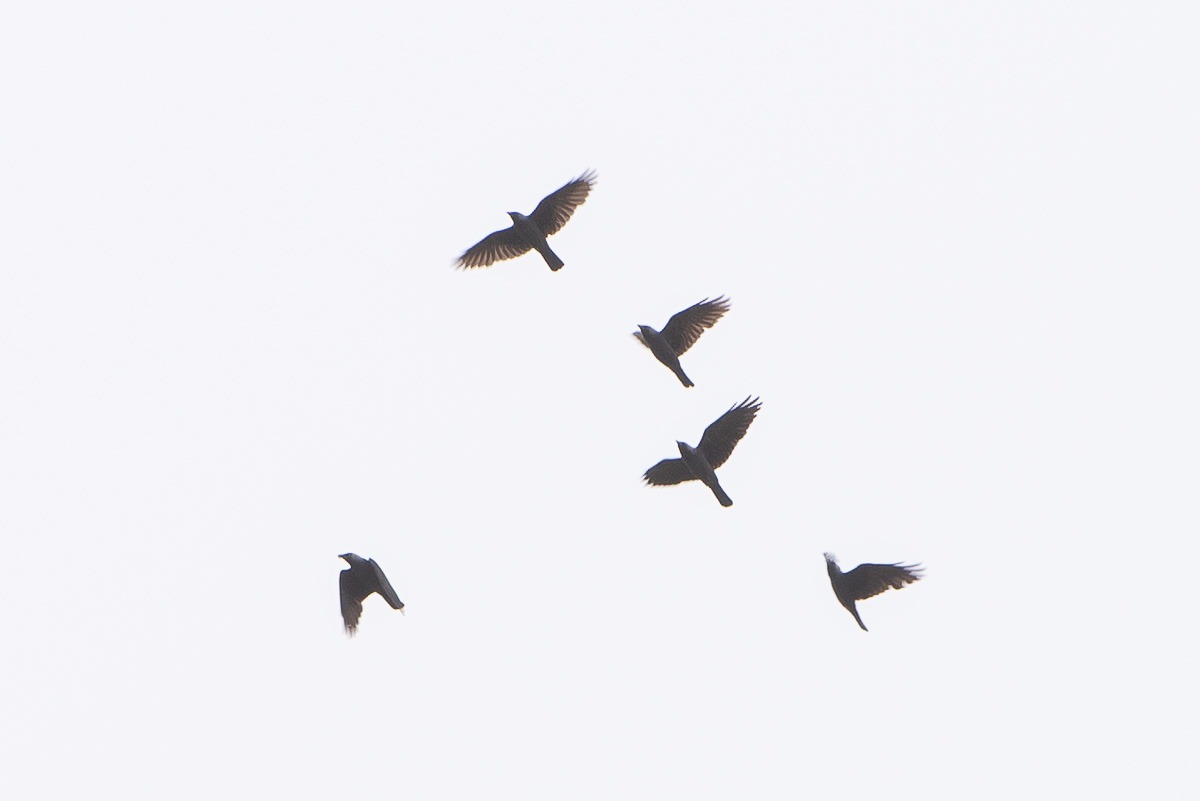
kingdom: Animalia
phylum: Chordata
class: Aves
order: Passeriformes
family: Corvidae
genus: Coloeus
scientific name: Coloeus monedula
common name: Allike
